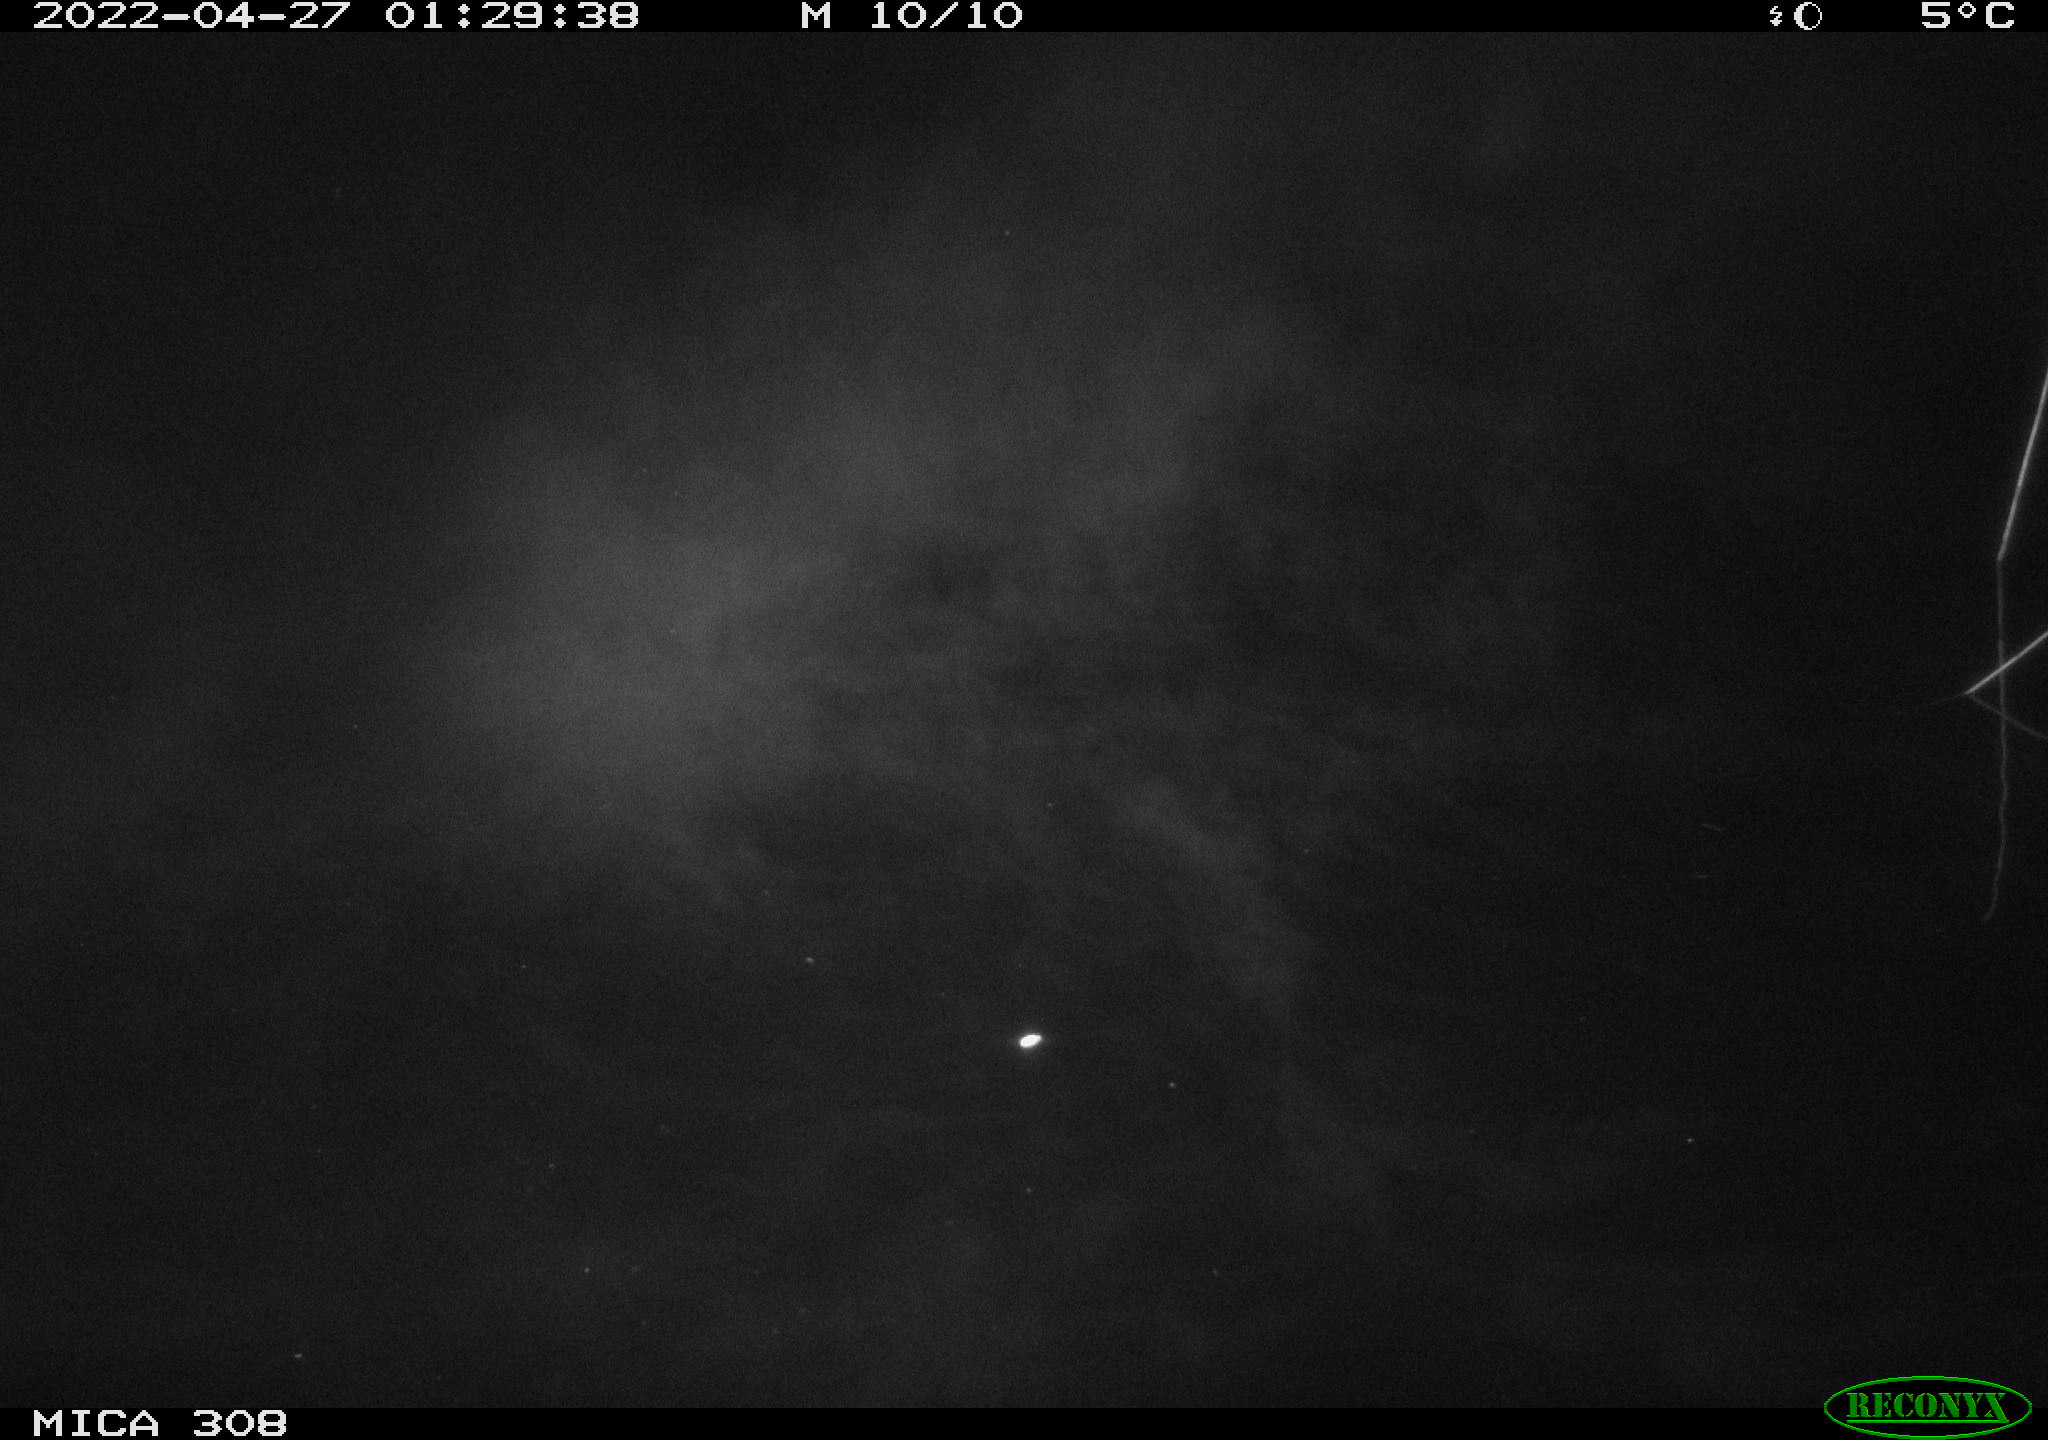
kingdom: Animalia
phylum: Chordata
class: Aves
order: Anseriformes
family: Anatidae
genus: Anas
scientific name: Anas platyrhynchos
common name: Mallard
